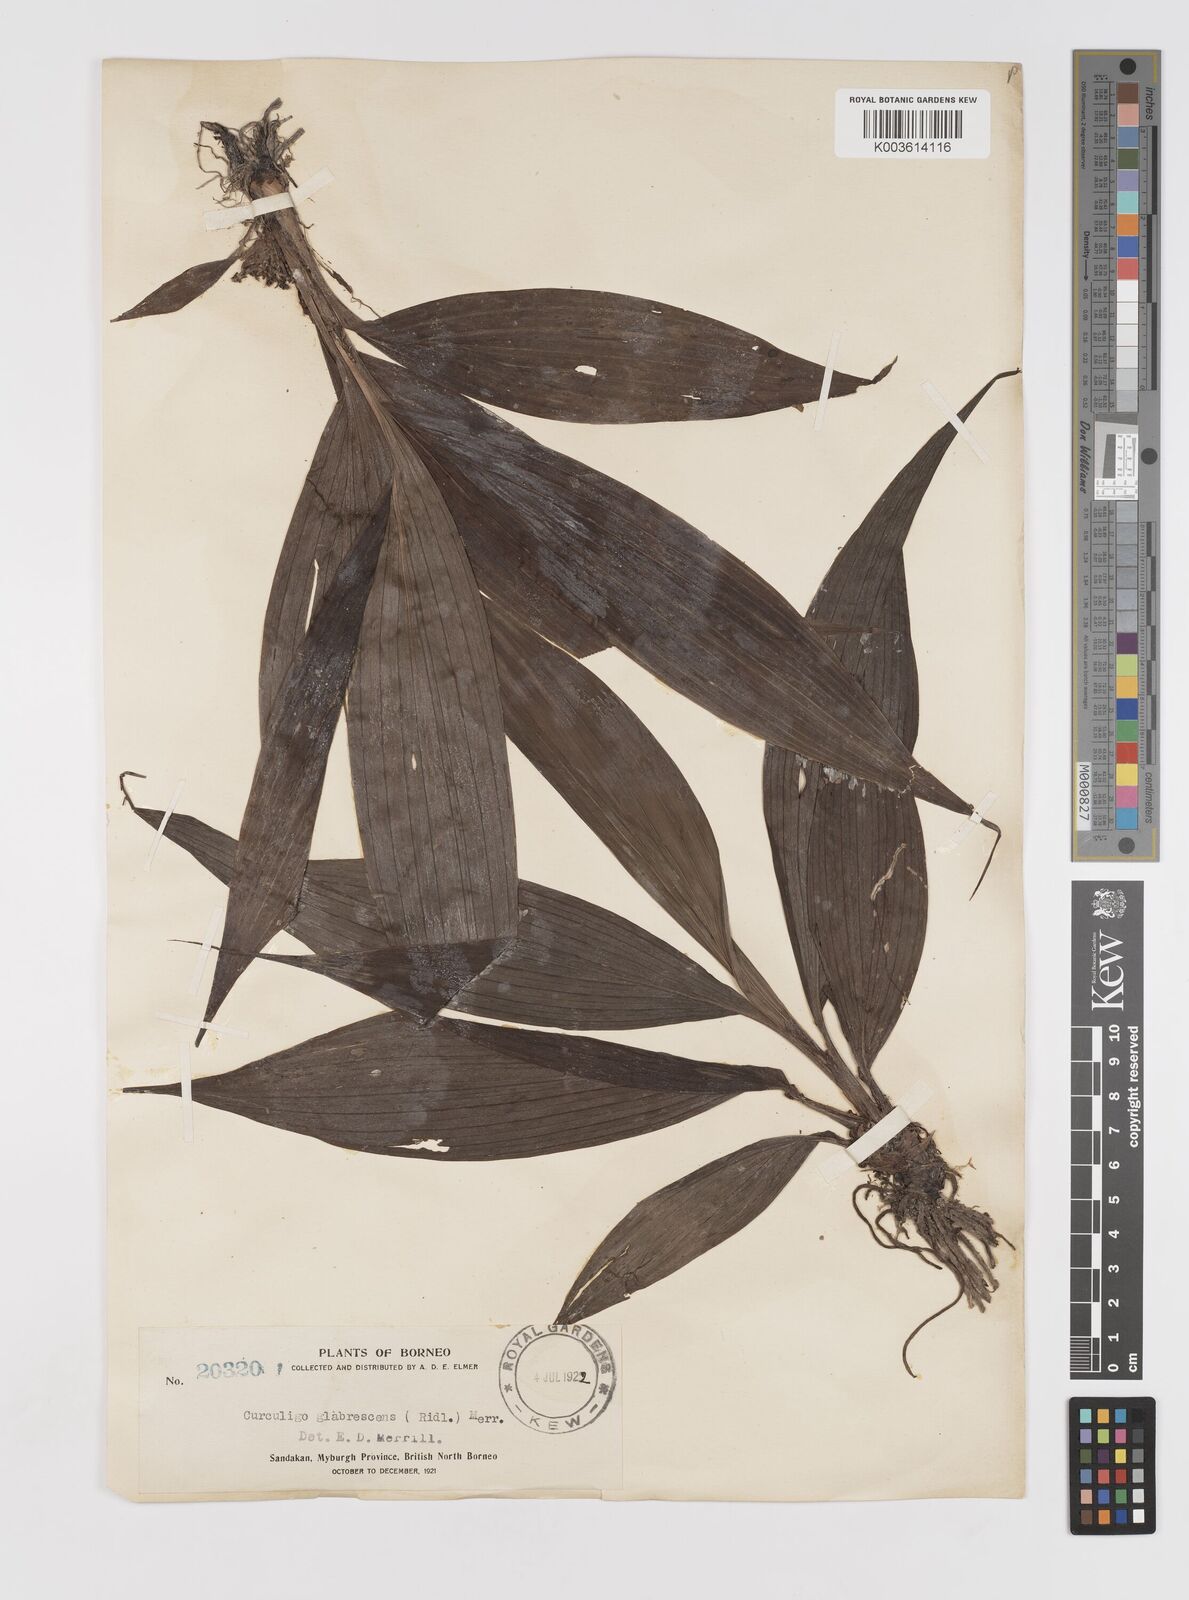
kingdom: Plantae
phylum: Tracheophyta
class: Liliopsida
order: Asparagales
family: Hypoxidaceae
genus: Curculigo
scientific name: Curculigo latifolia
